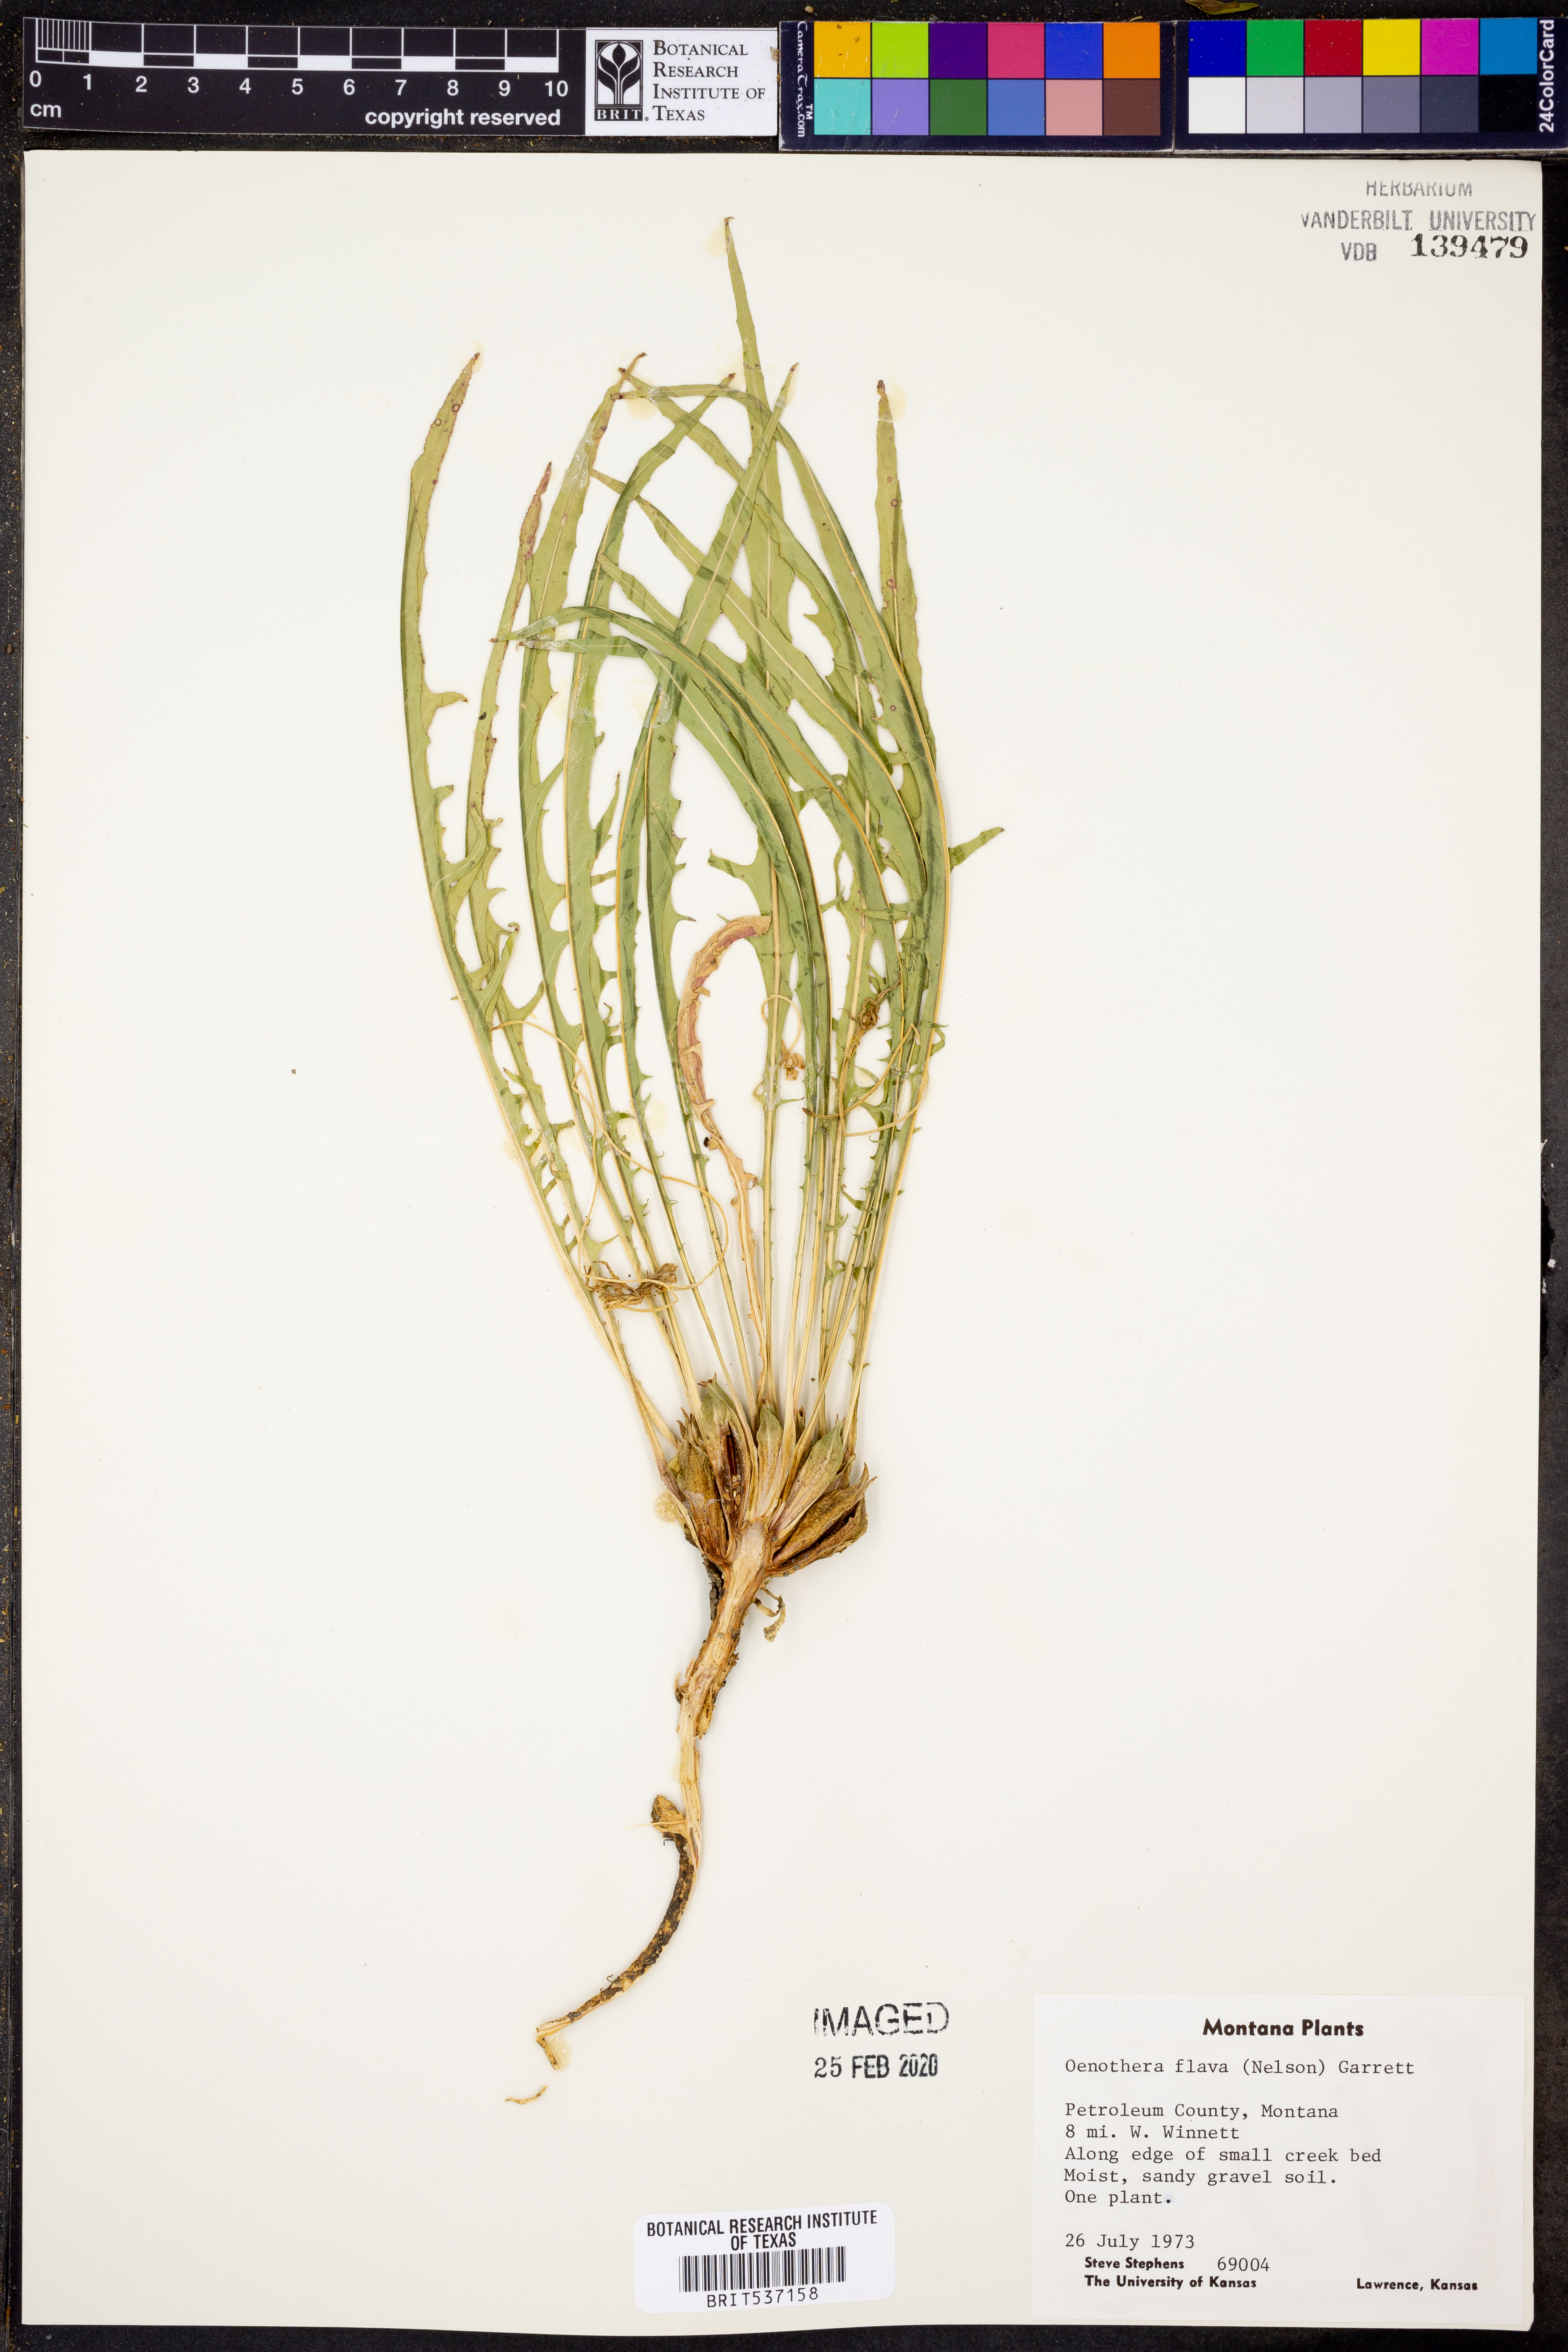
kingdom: Plantae
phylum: Tracheophyta
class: Magnoliopsida
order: Myrtales
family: Onagraceae
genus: Oenothera
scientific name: Oenothera flava
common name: Long-tubed evening-primrose
